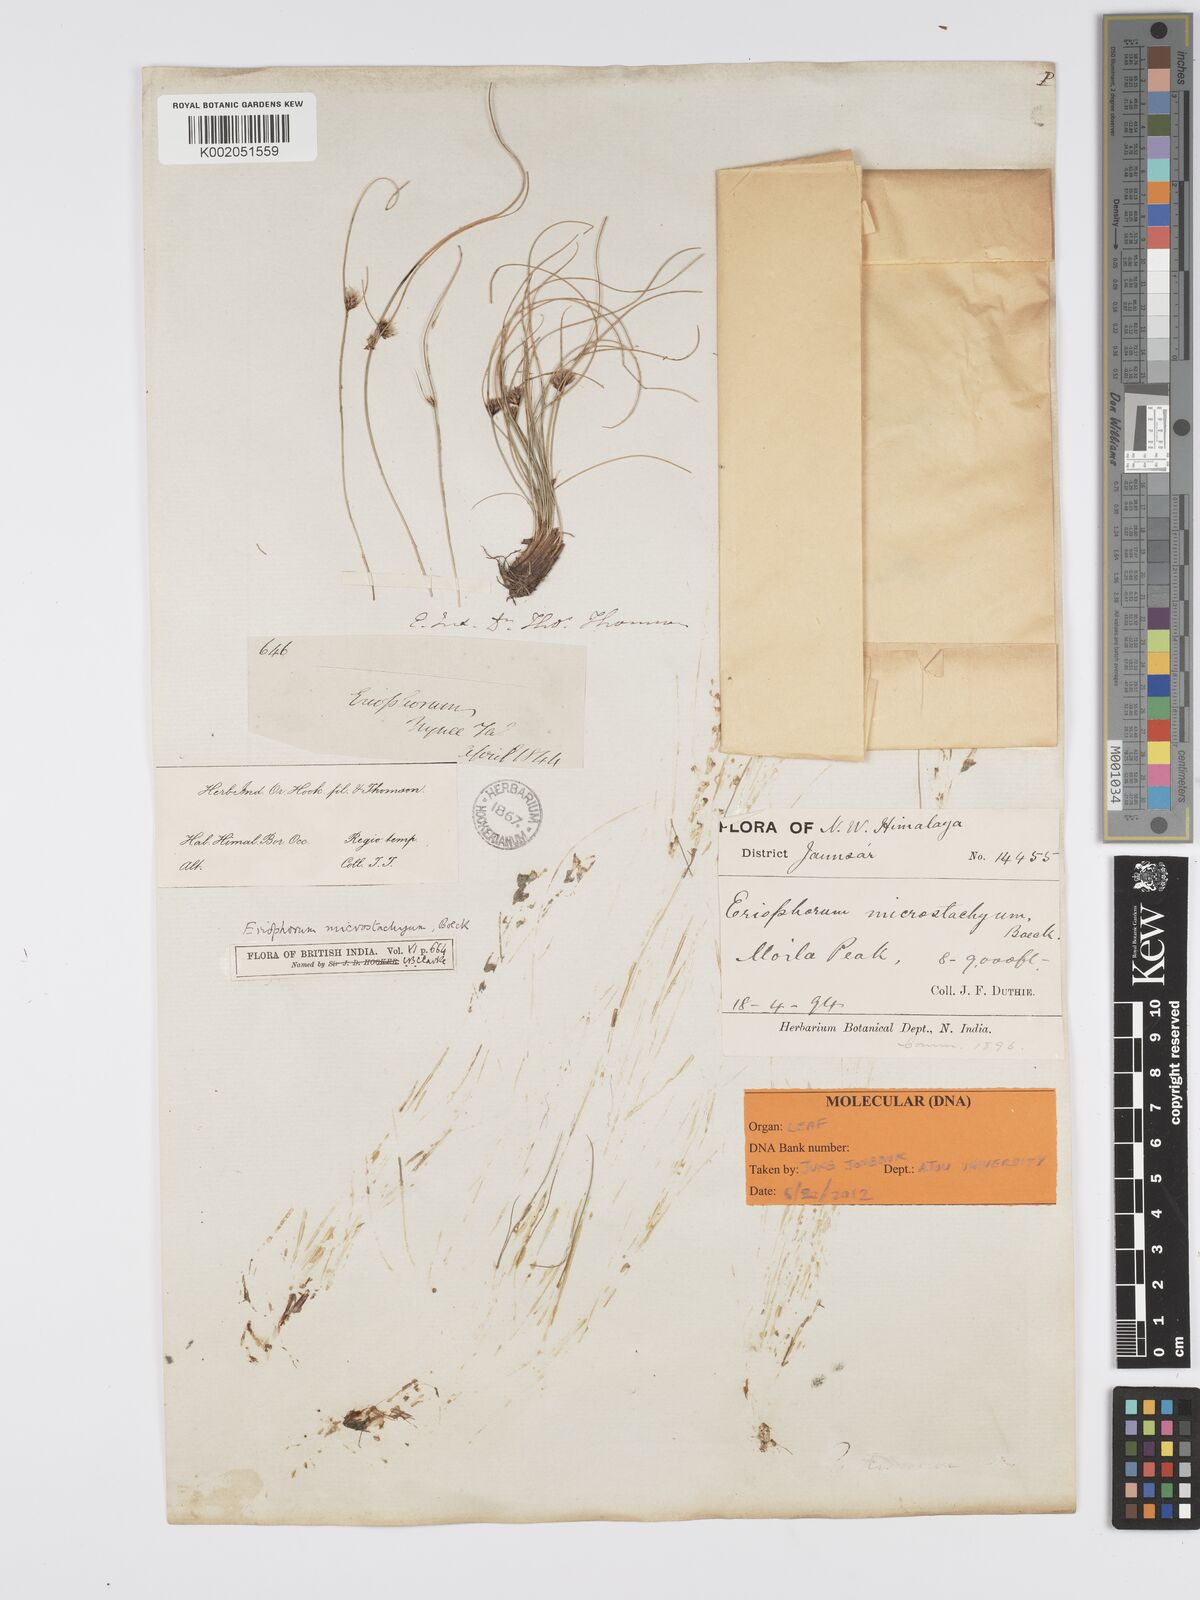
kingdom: Plantae
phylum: Tracheophyta
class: Liliopsida
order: Poales
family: Cyperaceae
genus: Erioscirpus
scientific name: Erioscirpus microstachyus
